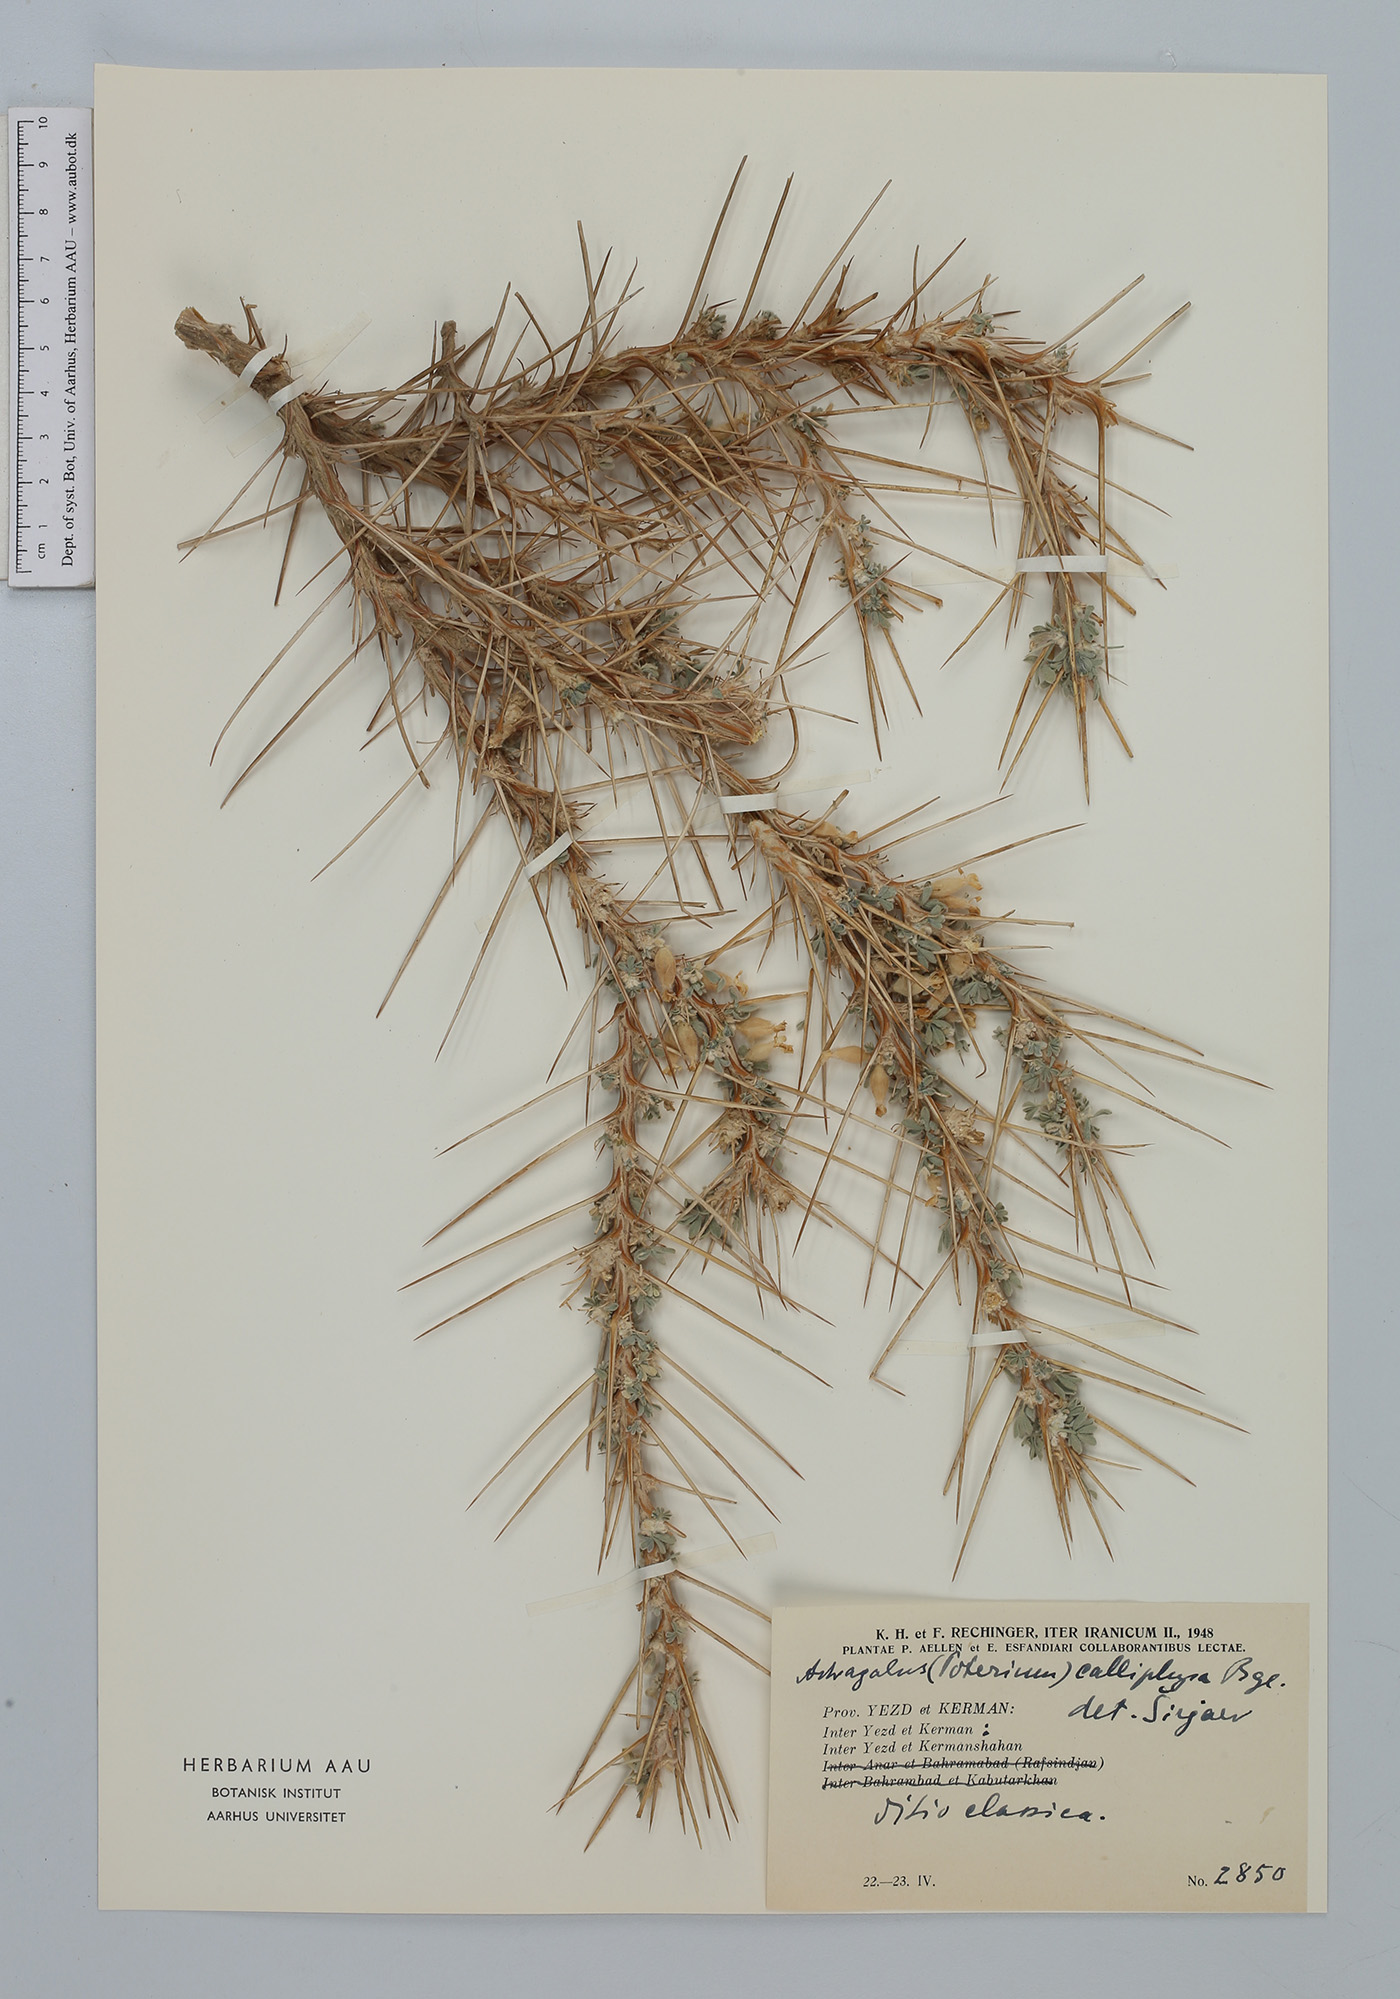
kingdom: Plantae
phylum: Tracheophyta
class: Magnoliopsida
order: Fabales
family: Fabaceae
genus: Astragalus
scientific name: Astragalus calliphysa
